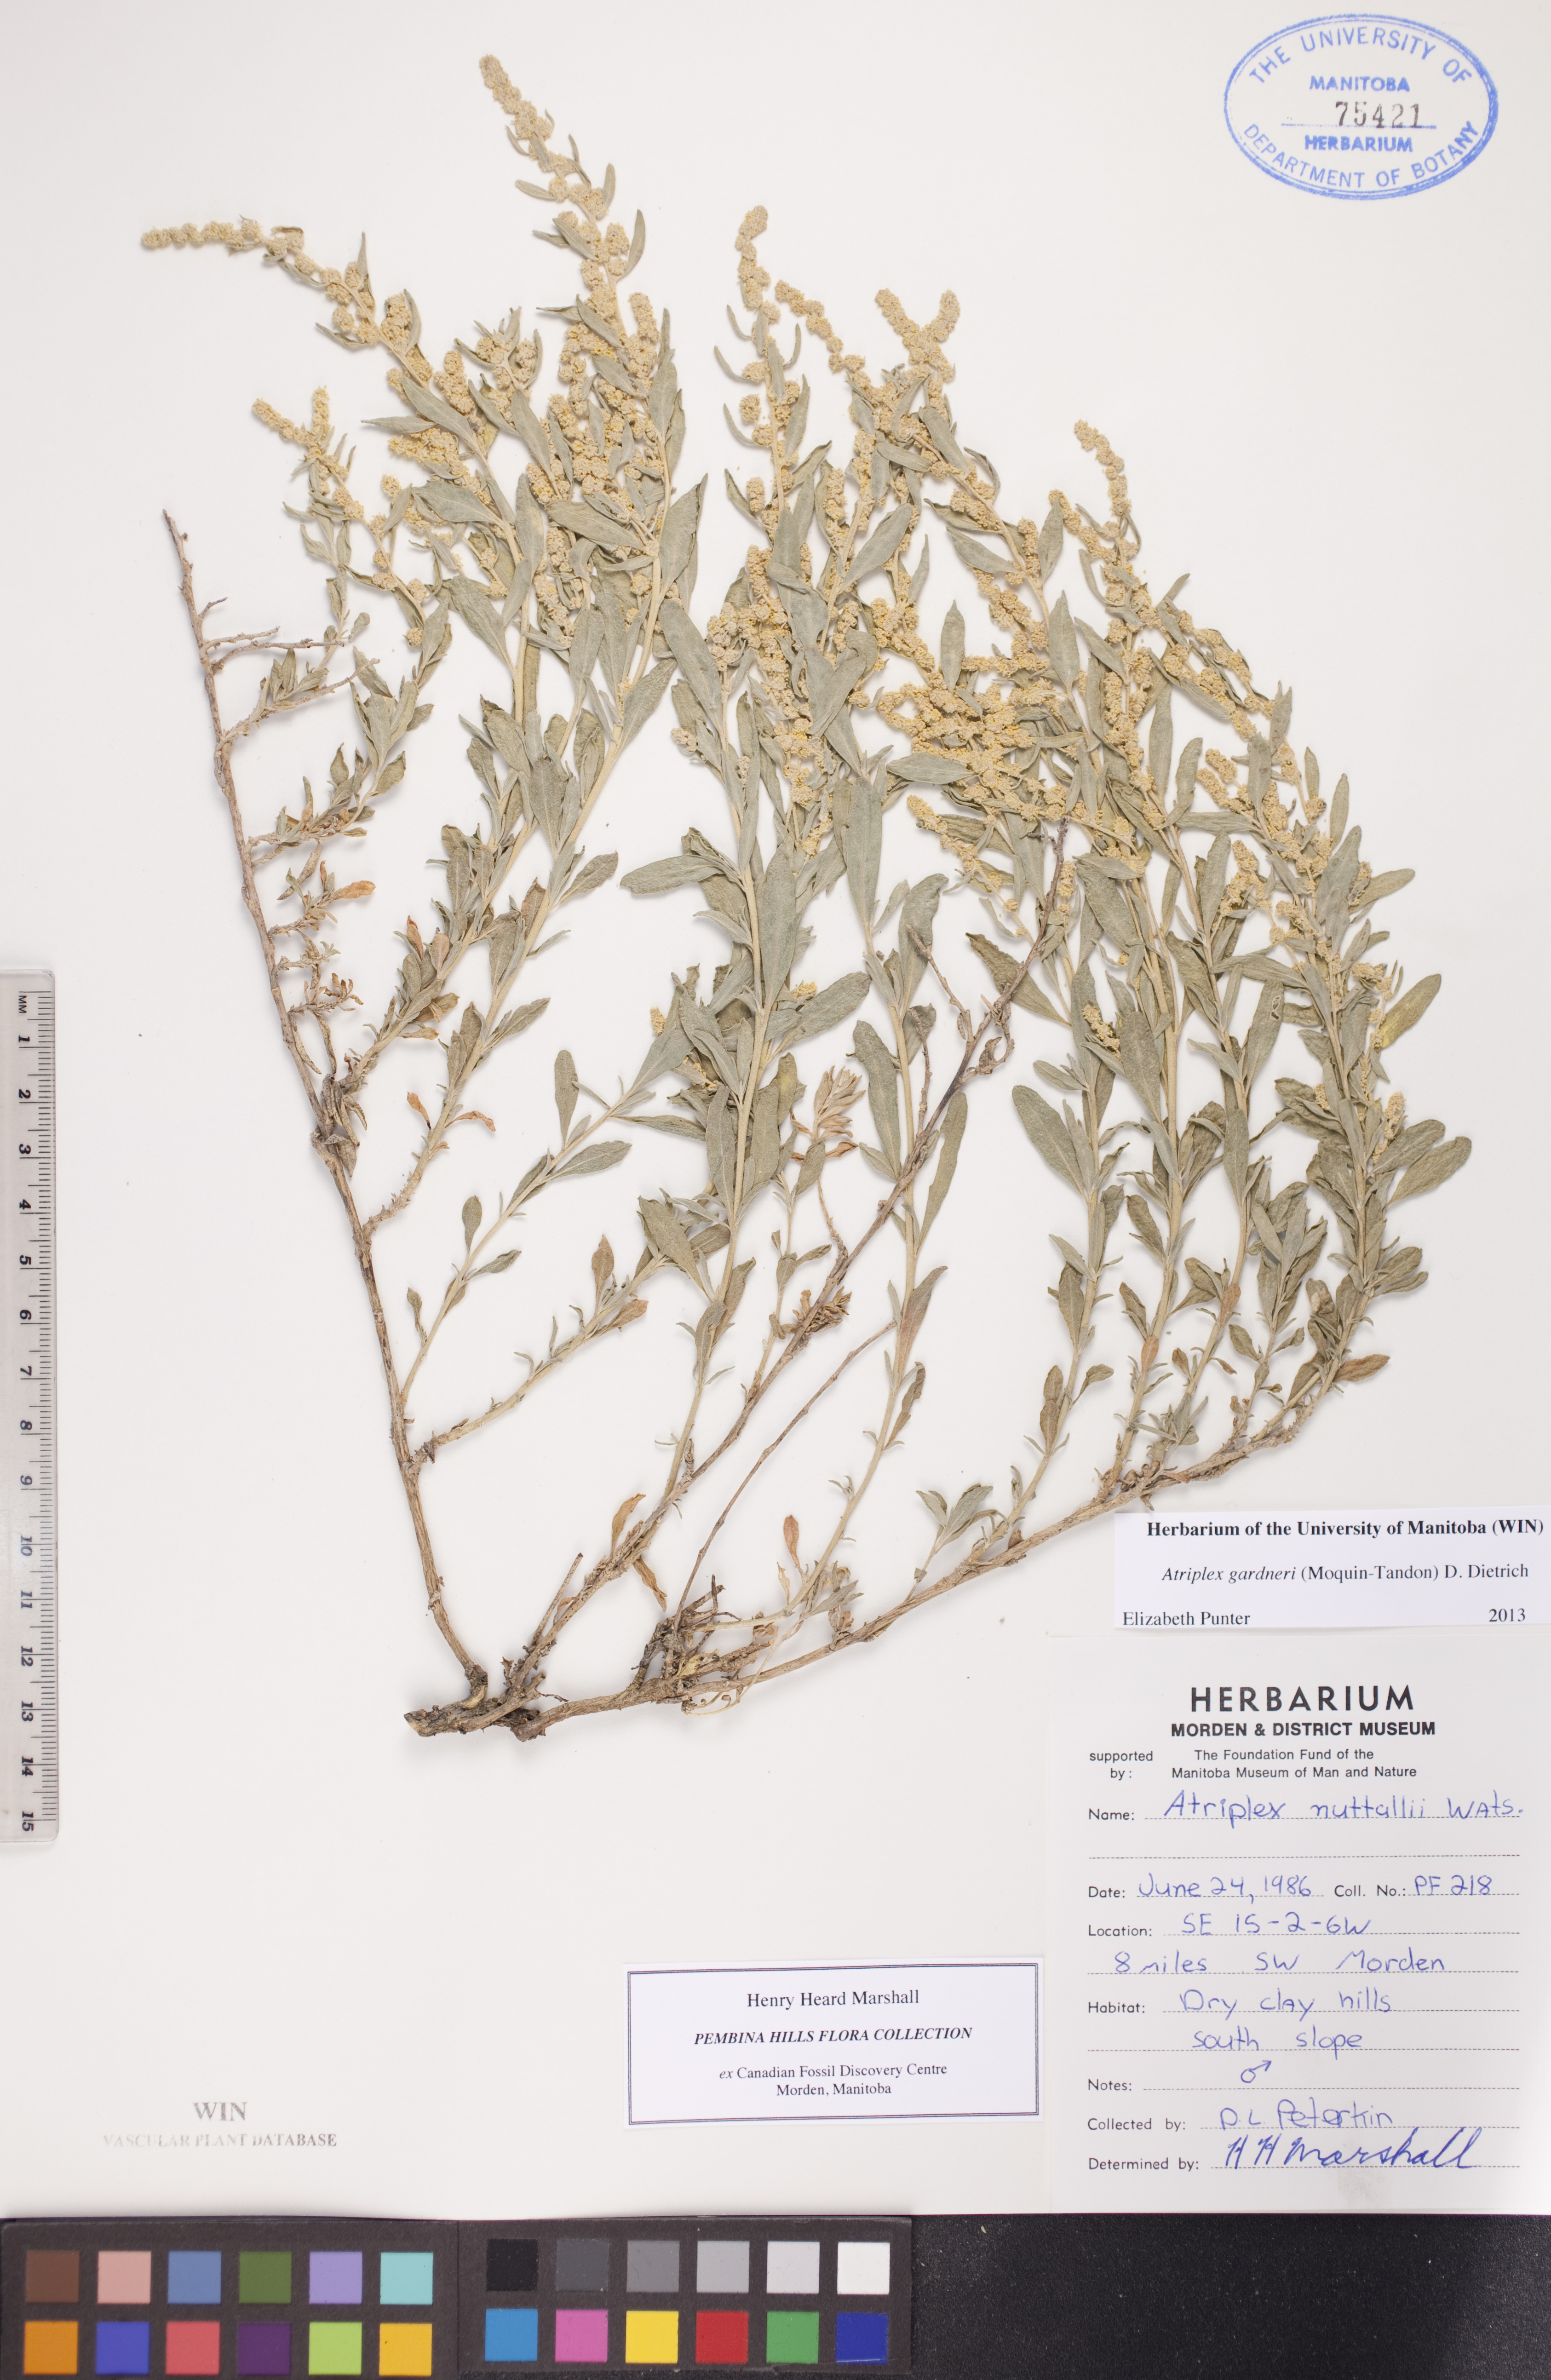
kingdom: Plantae
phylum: Tracheophyta
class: Magnoliopsida
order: Caryophyllales
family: Amaranthaceae
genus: Atriplex
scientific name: Atriplex gardneri
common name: Gardner's orache
